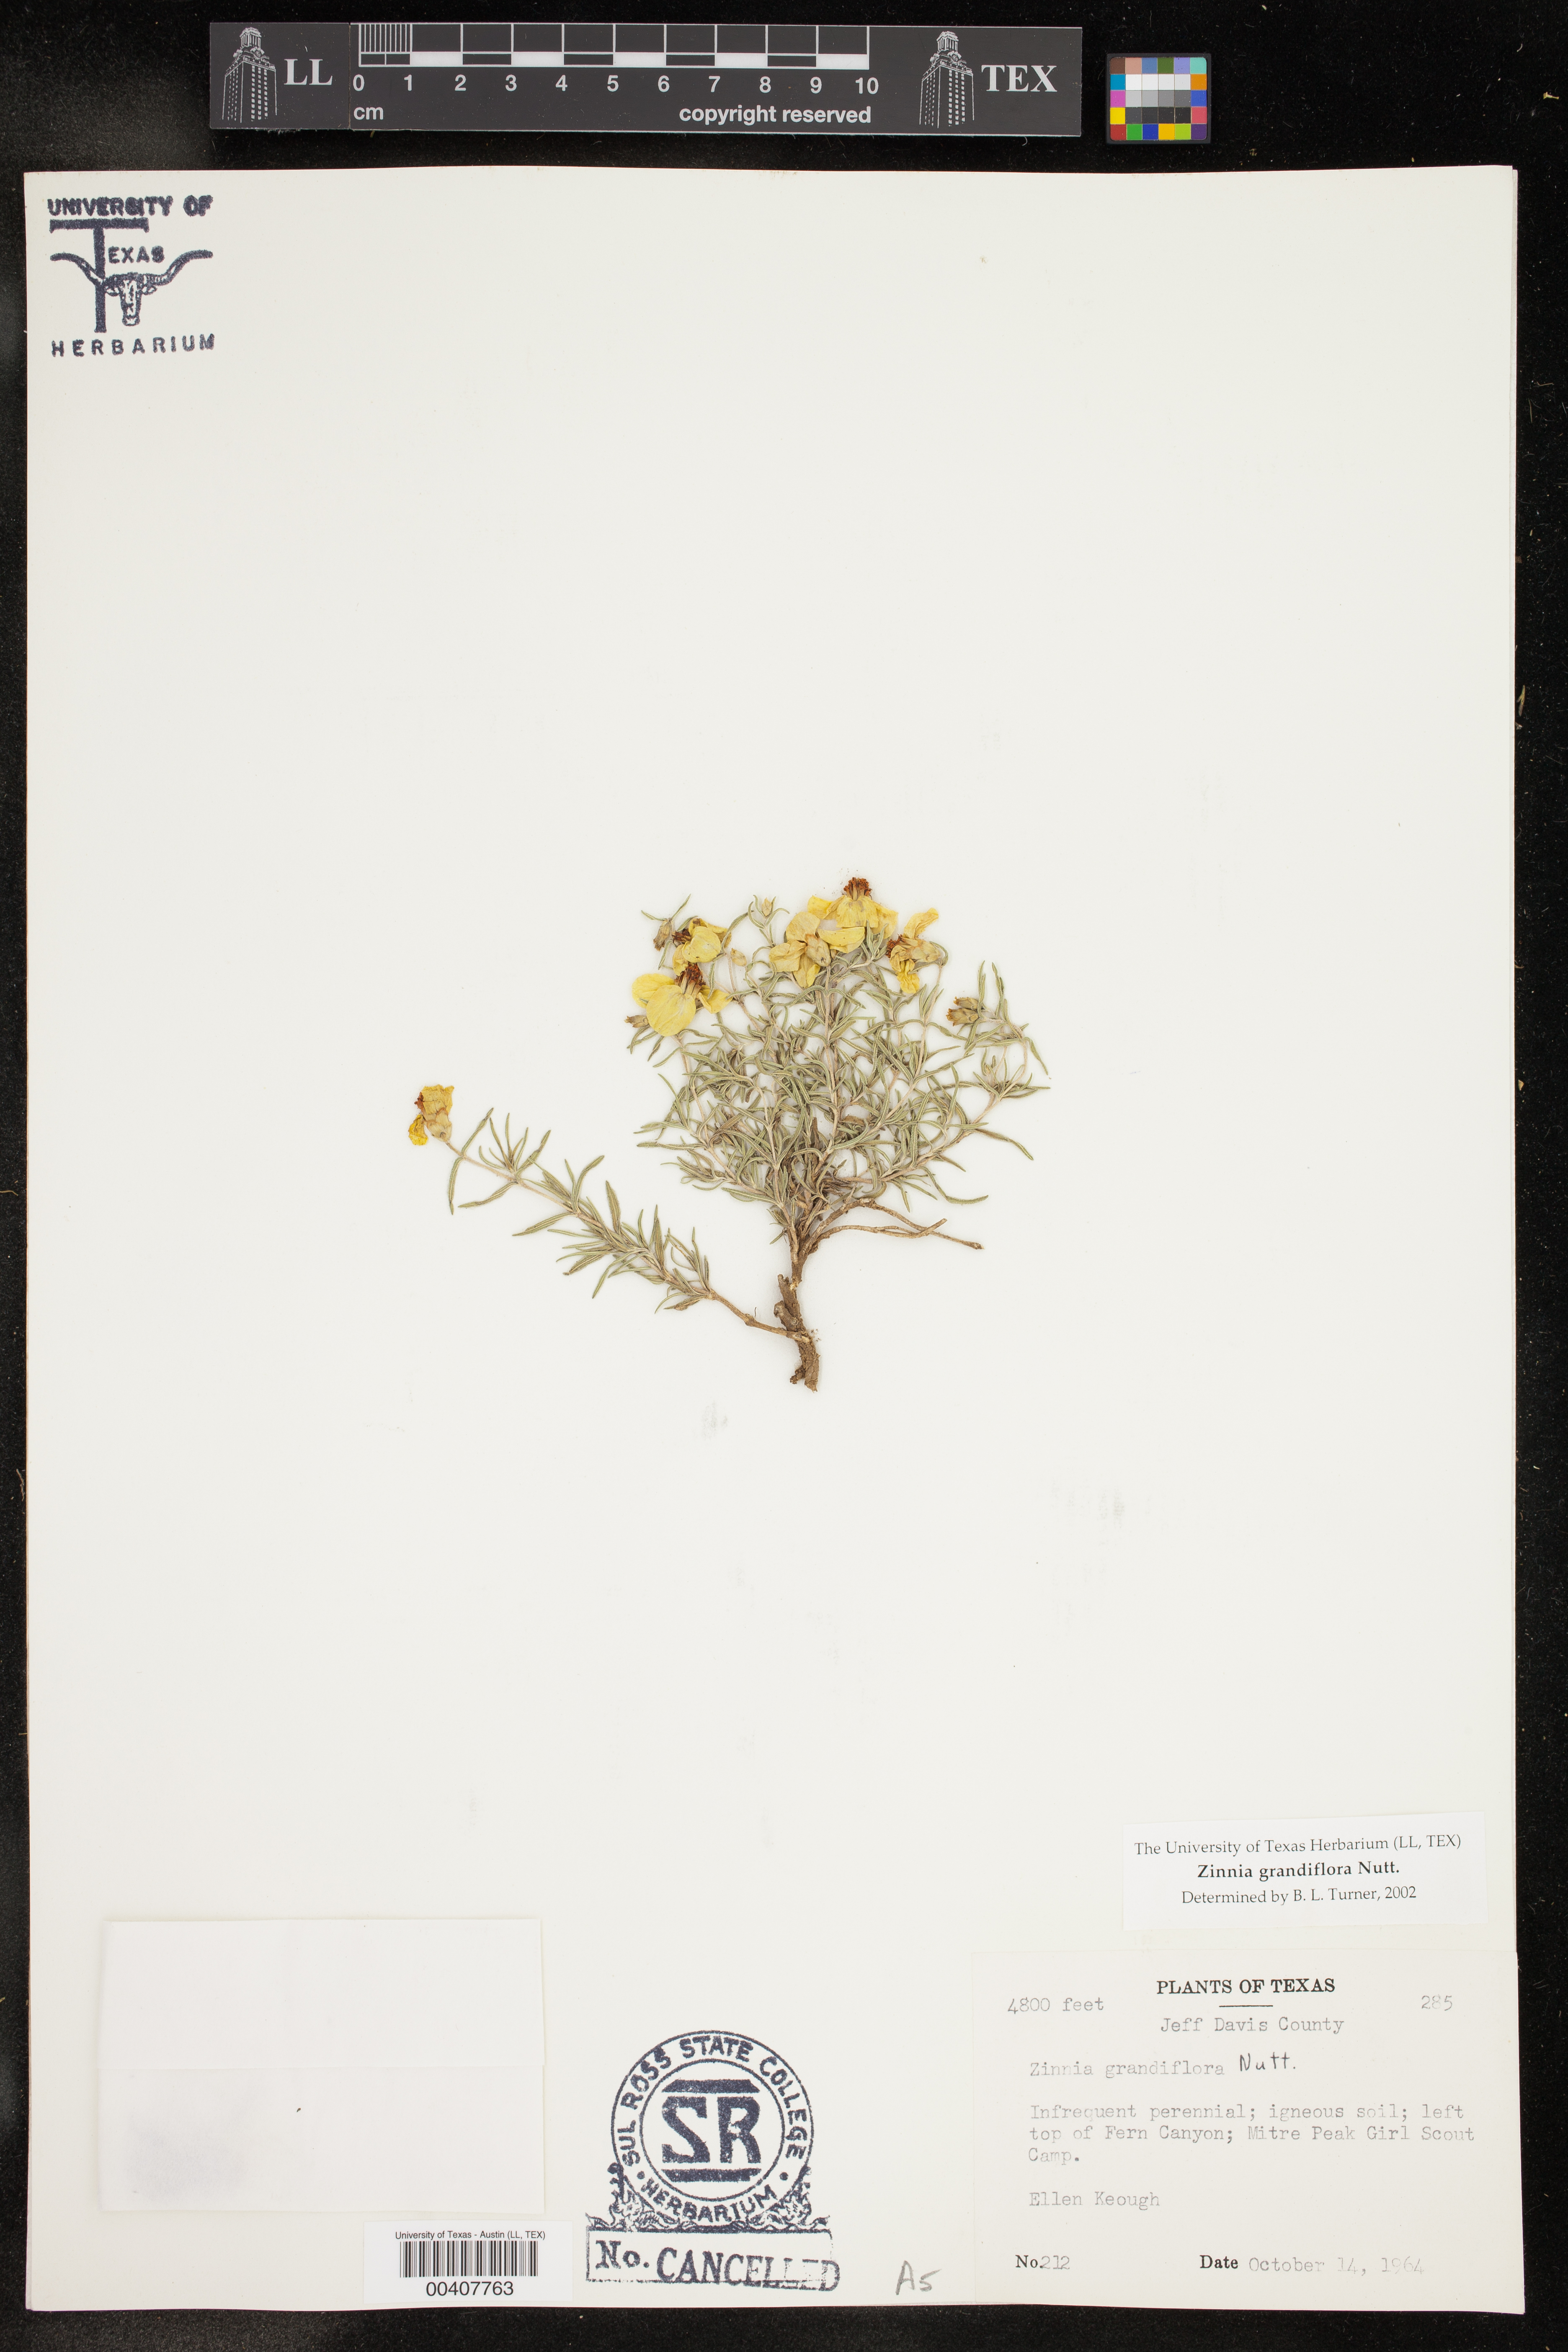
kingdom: Plantae
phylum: Tracheophyta
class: Magnoliopsida
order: Asterales
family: Asteraceae
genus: Zinnia
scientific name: Zinnia grandiflora
